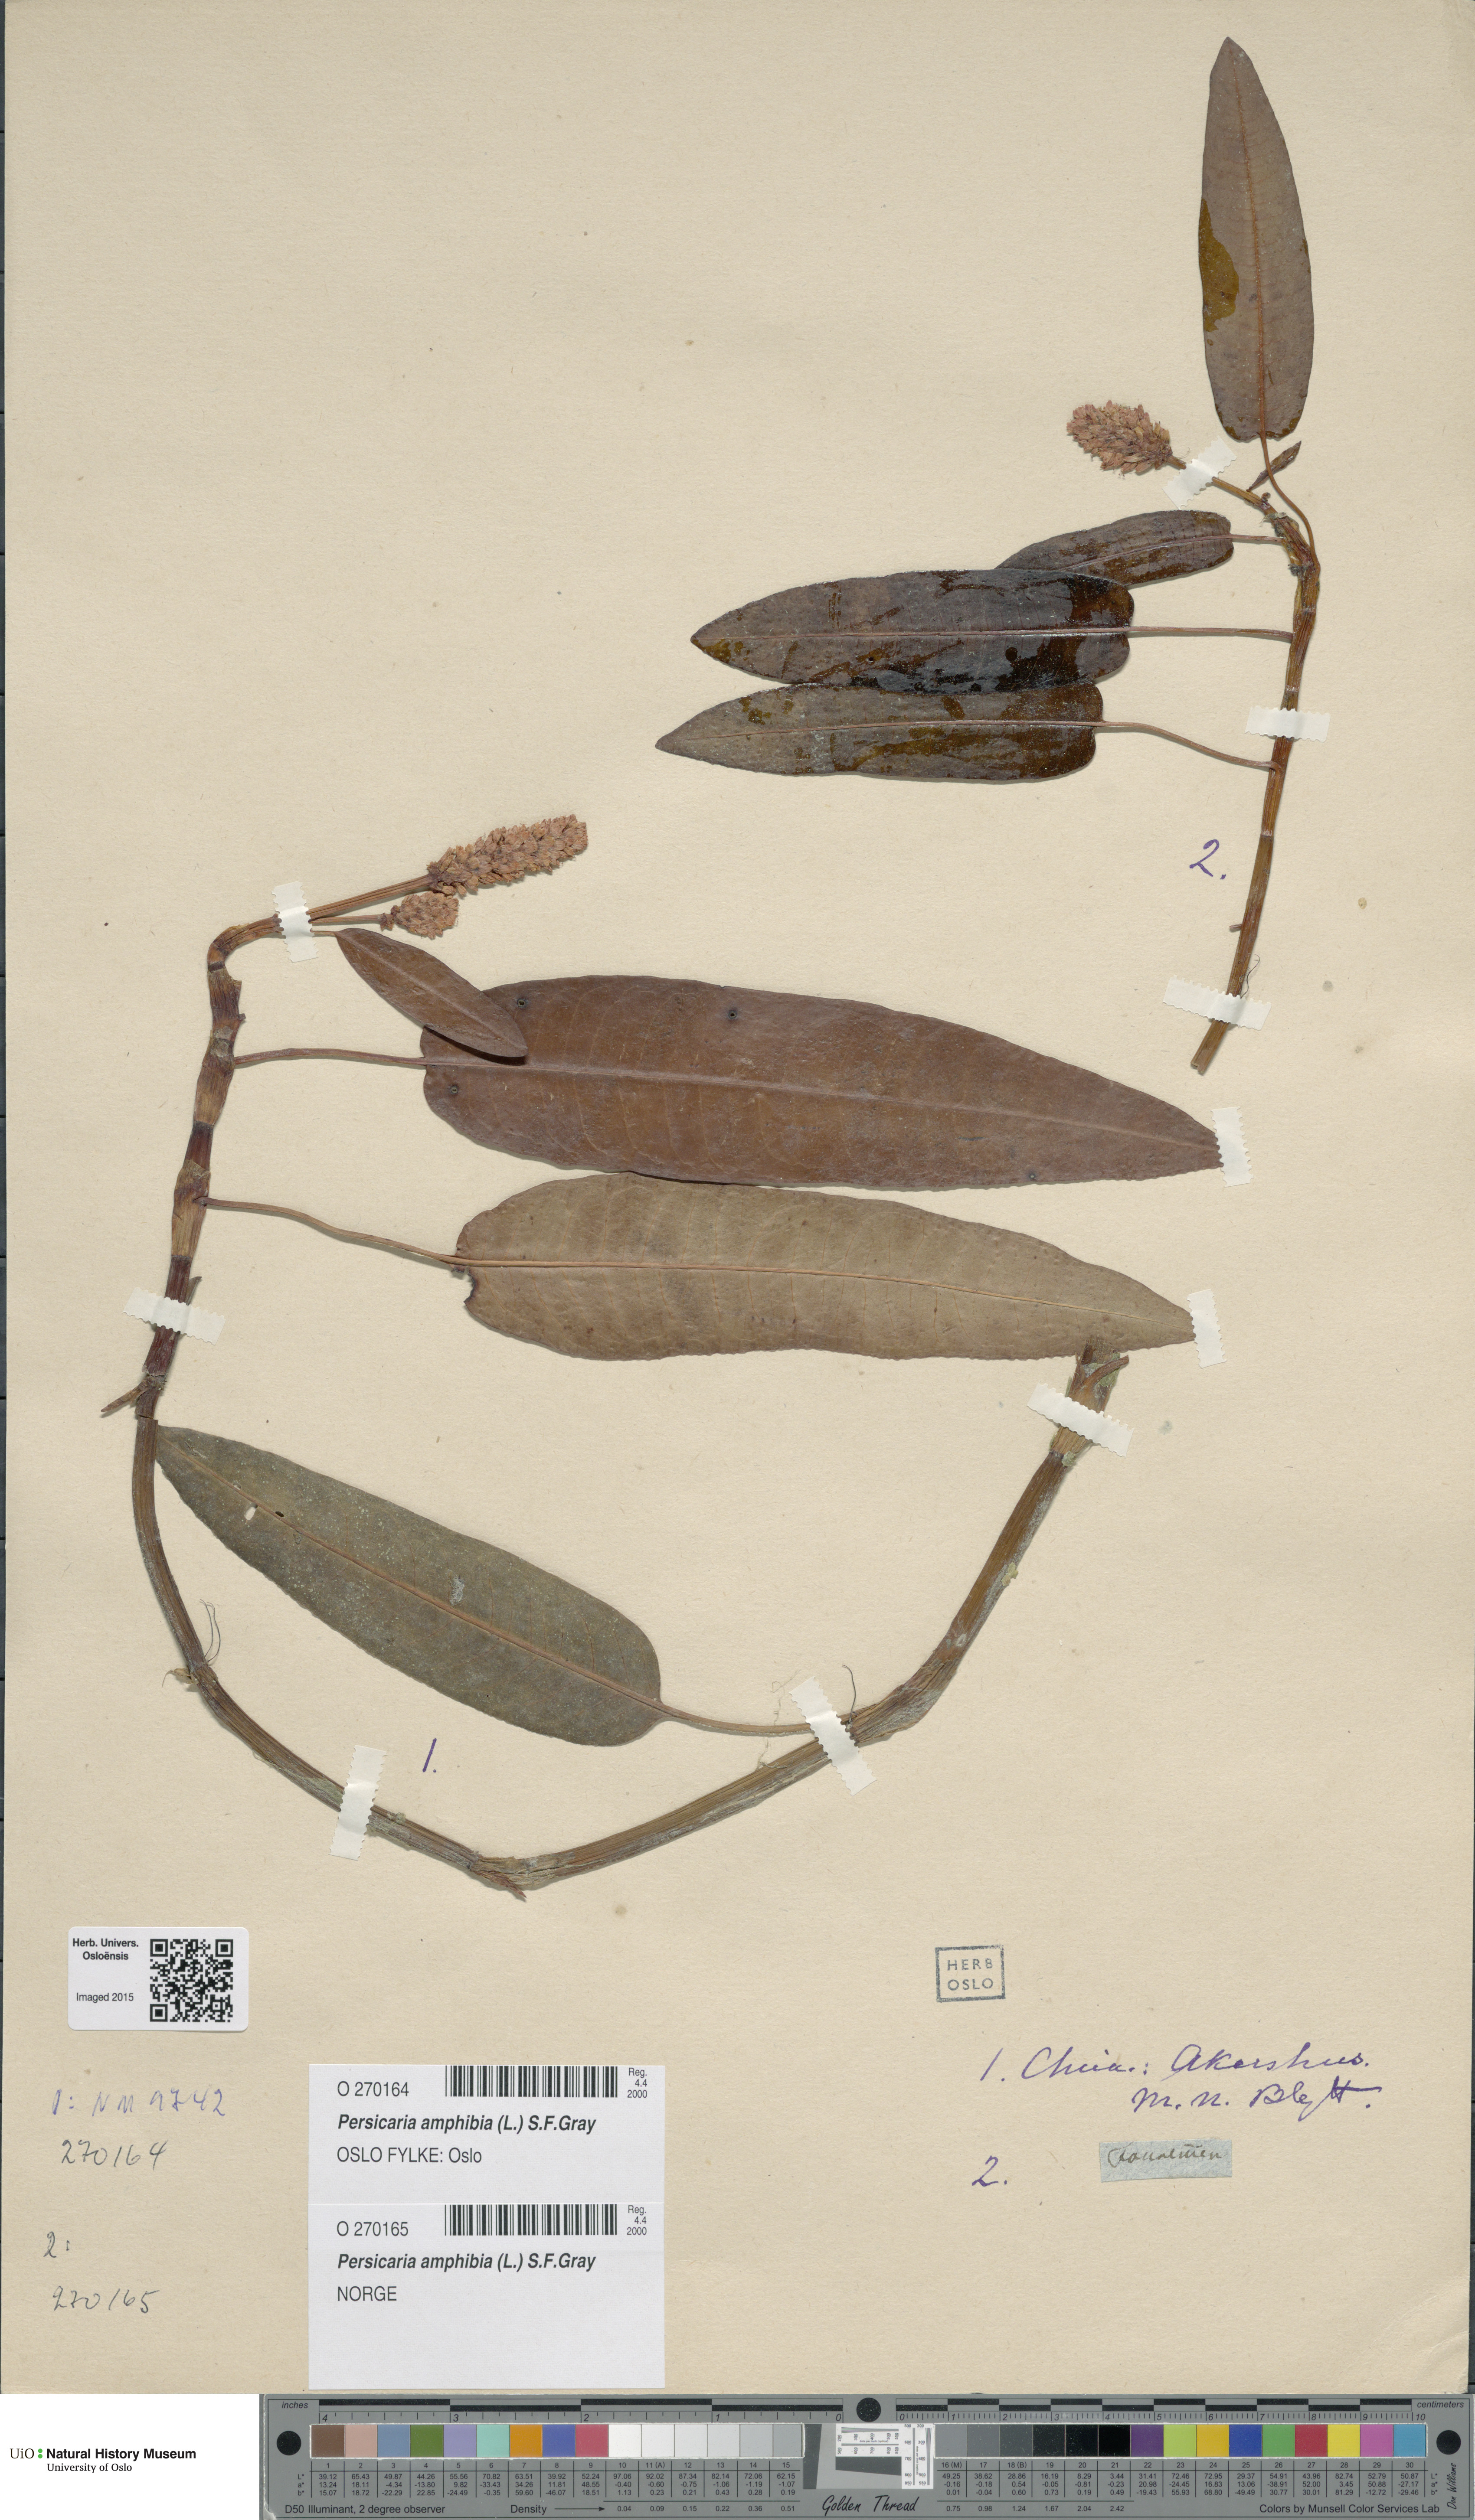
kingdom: Plantae
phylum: Tracheophyta
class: Magnoliopsida
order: Caryophyllales
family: Polygonaceae
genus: Persicaria
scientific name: Persicaria amphibia
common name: Amphibious bistort
